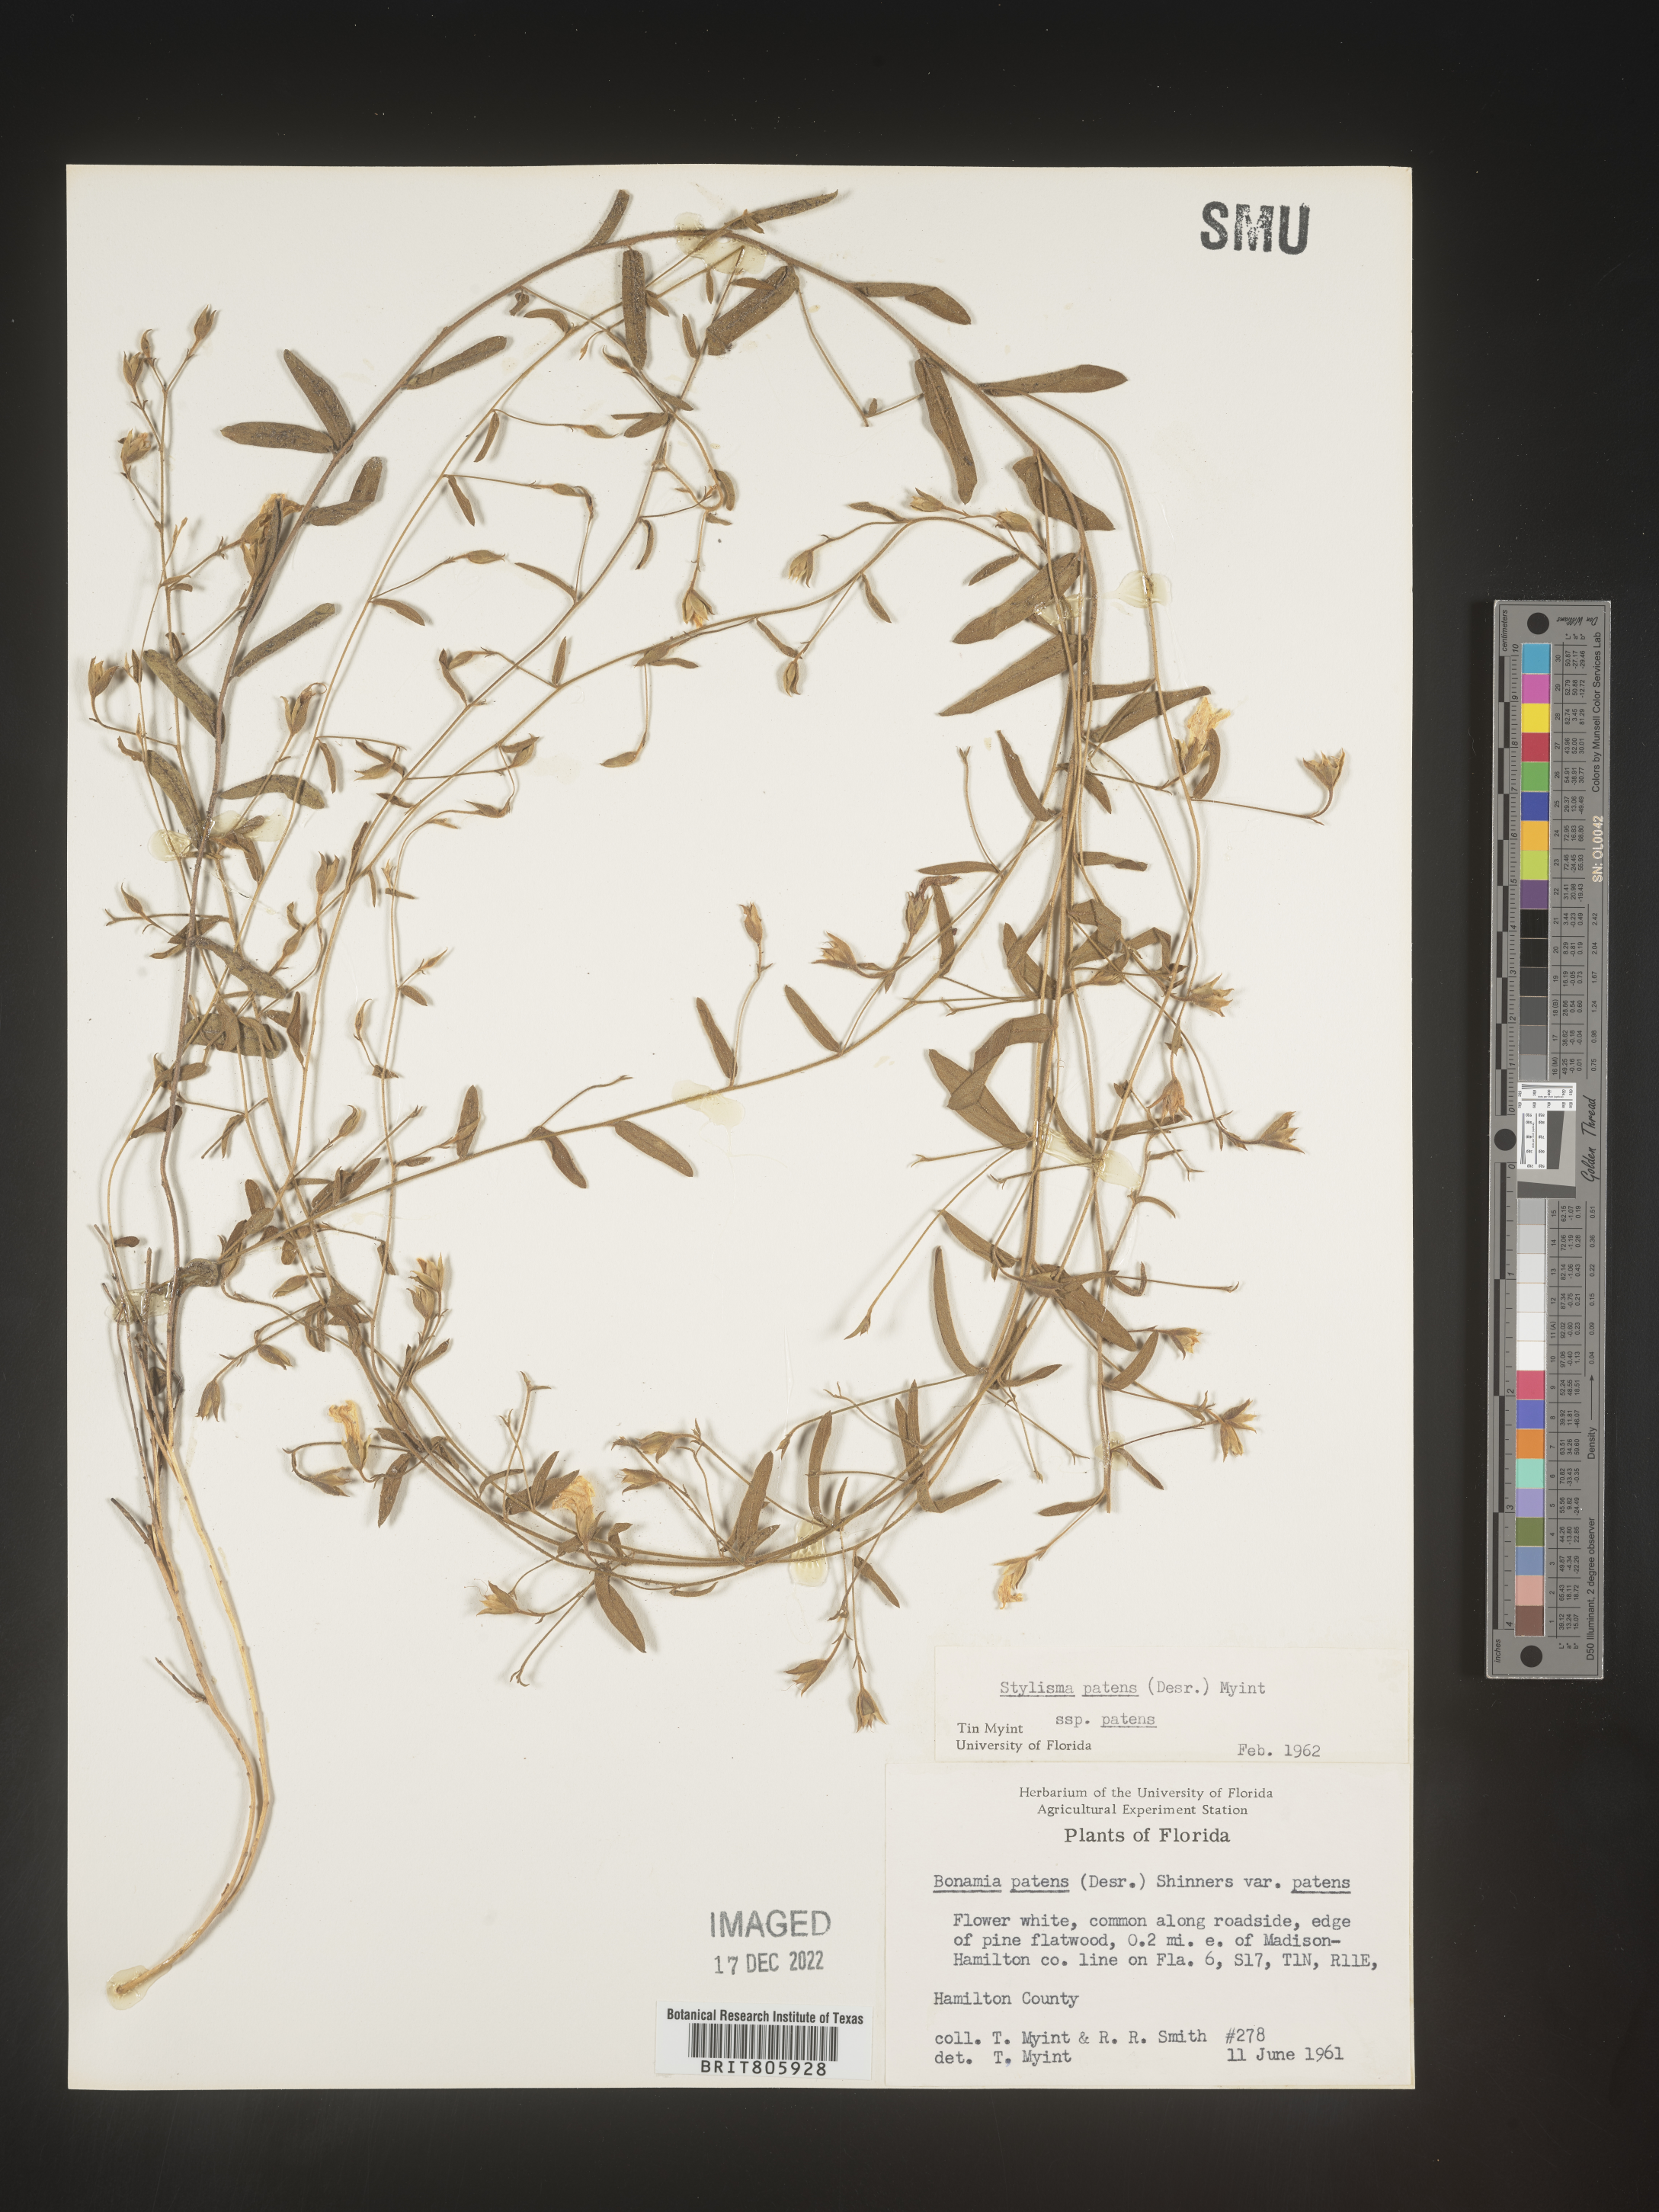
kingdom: Plantae
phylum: Tracheophyta
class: Magnoliopsida
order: Solanales
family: Convolvulaceae
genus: Stylisma
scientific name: Stylisma
